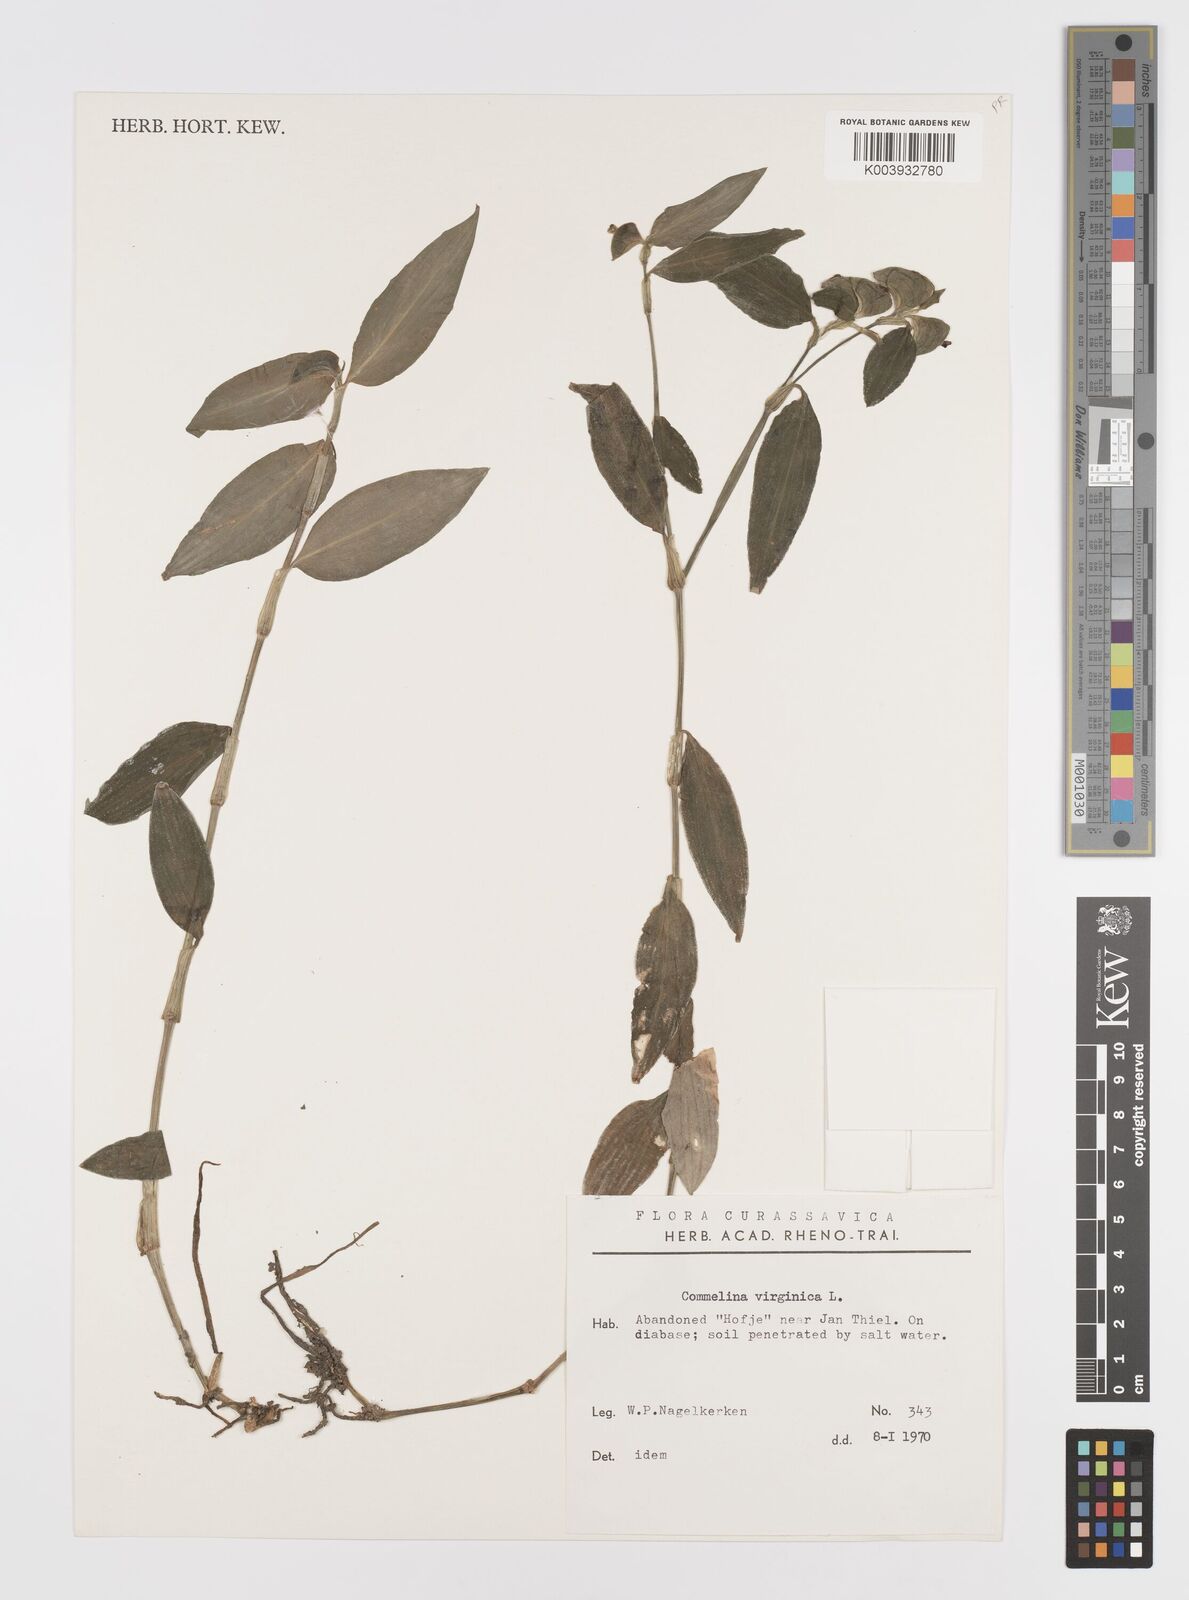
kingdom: Plantae
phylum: Tracheophyta
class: Liliopsida
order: Commelinales
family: Commelinaceae
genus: Commelina
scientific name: Commelina virginica
